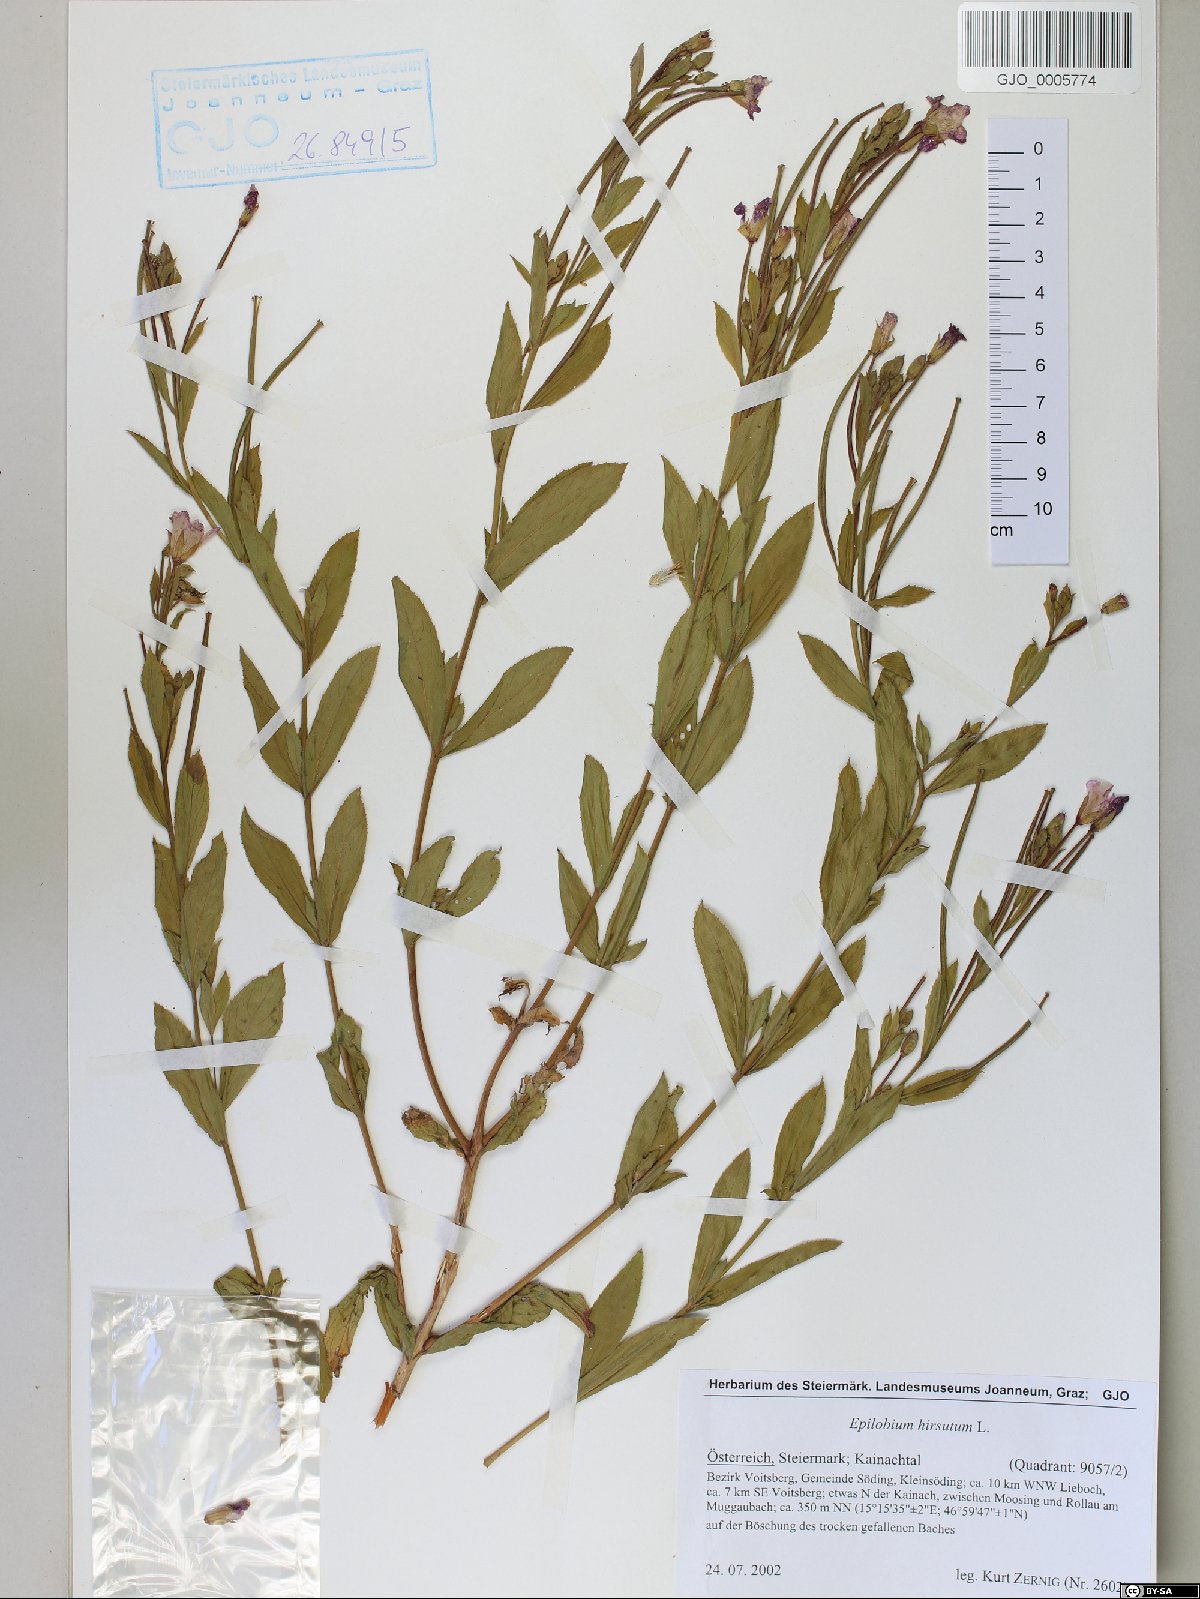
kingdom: Plantae
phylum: Tracheophyta
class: Magnoliopsida
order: Myrtales
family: Onagraceae
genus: Epilobium
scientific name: Epilobium hirsutum
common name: Great willowherb
